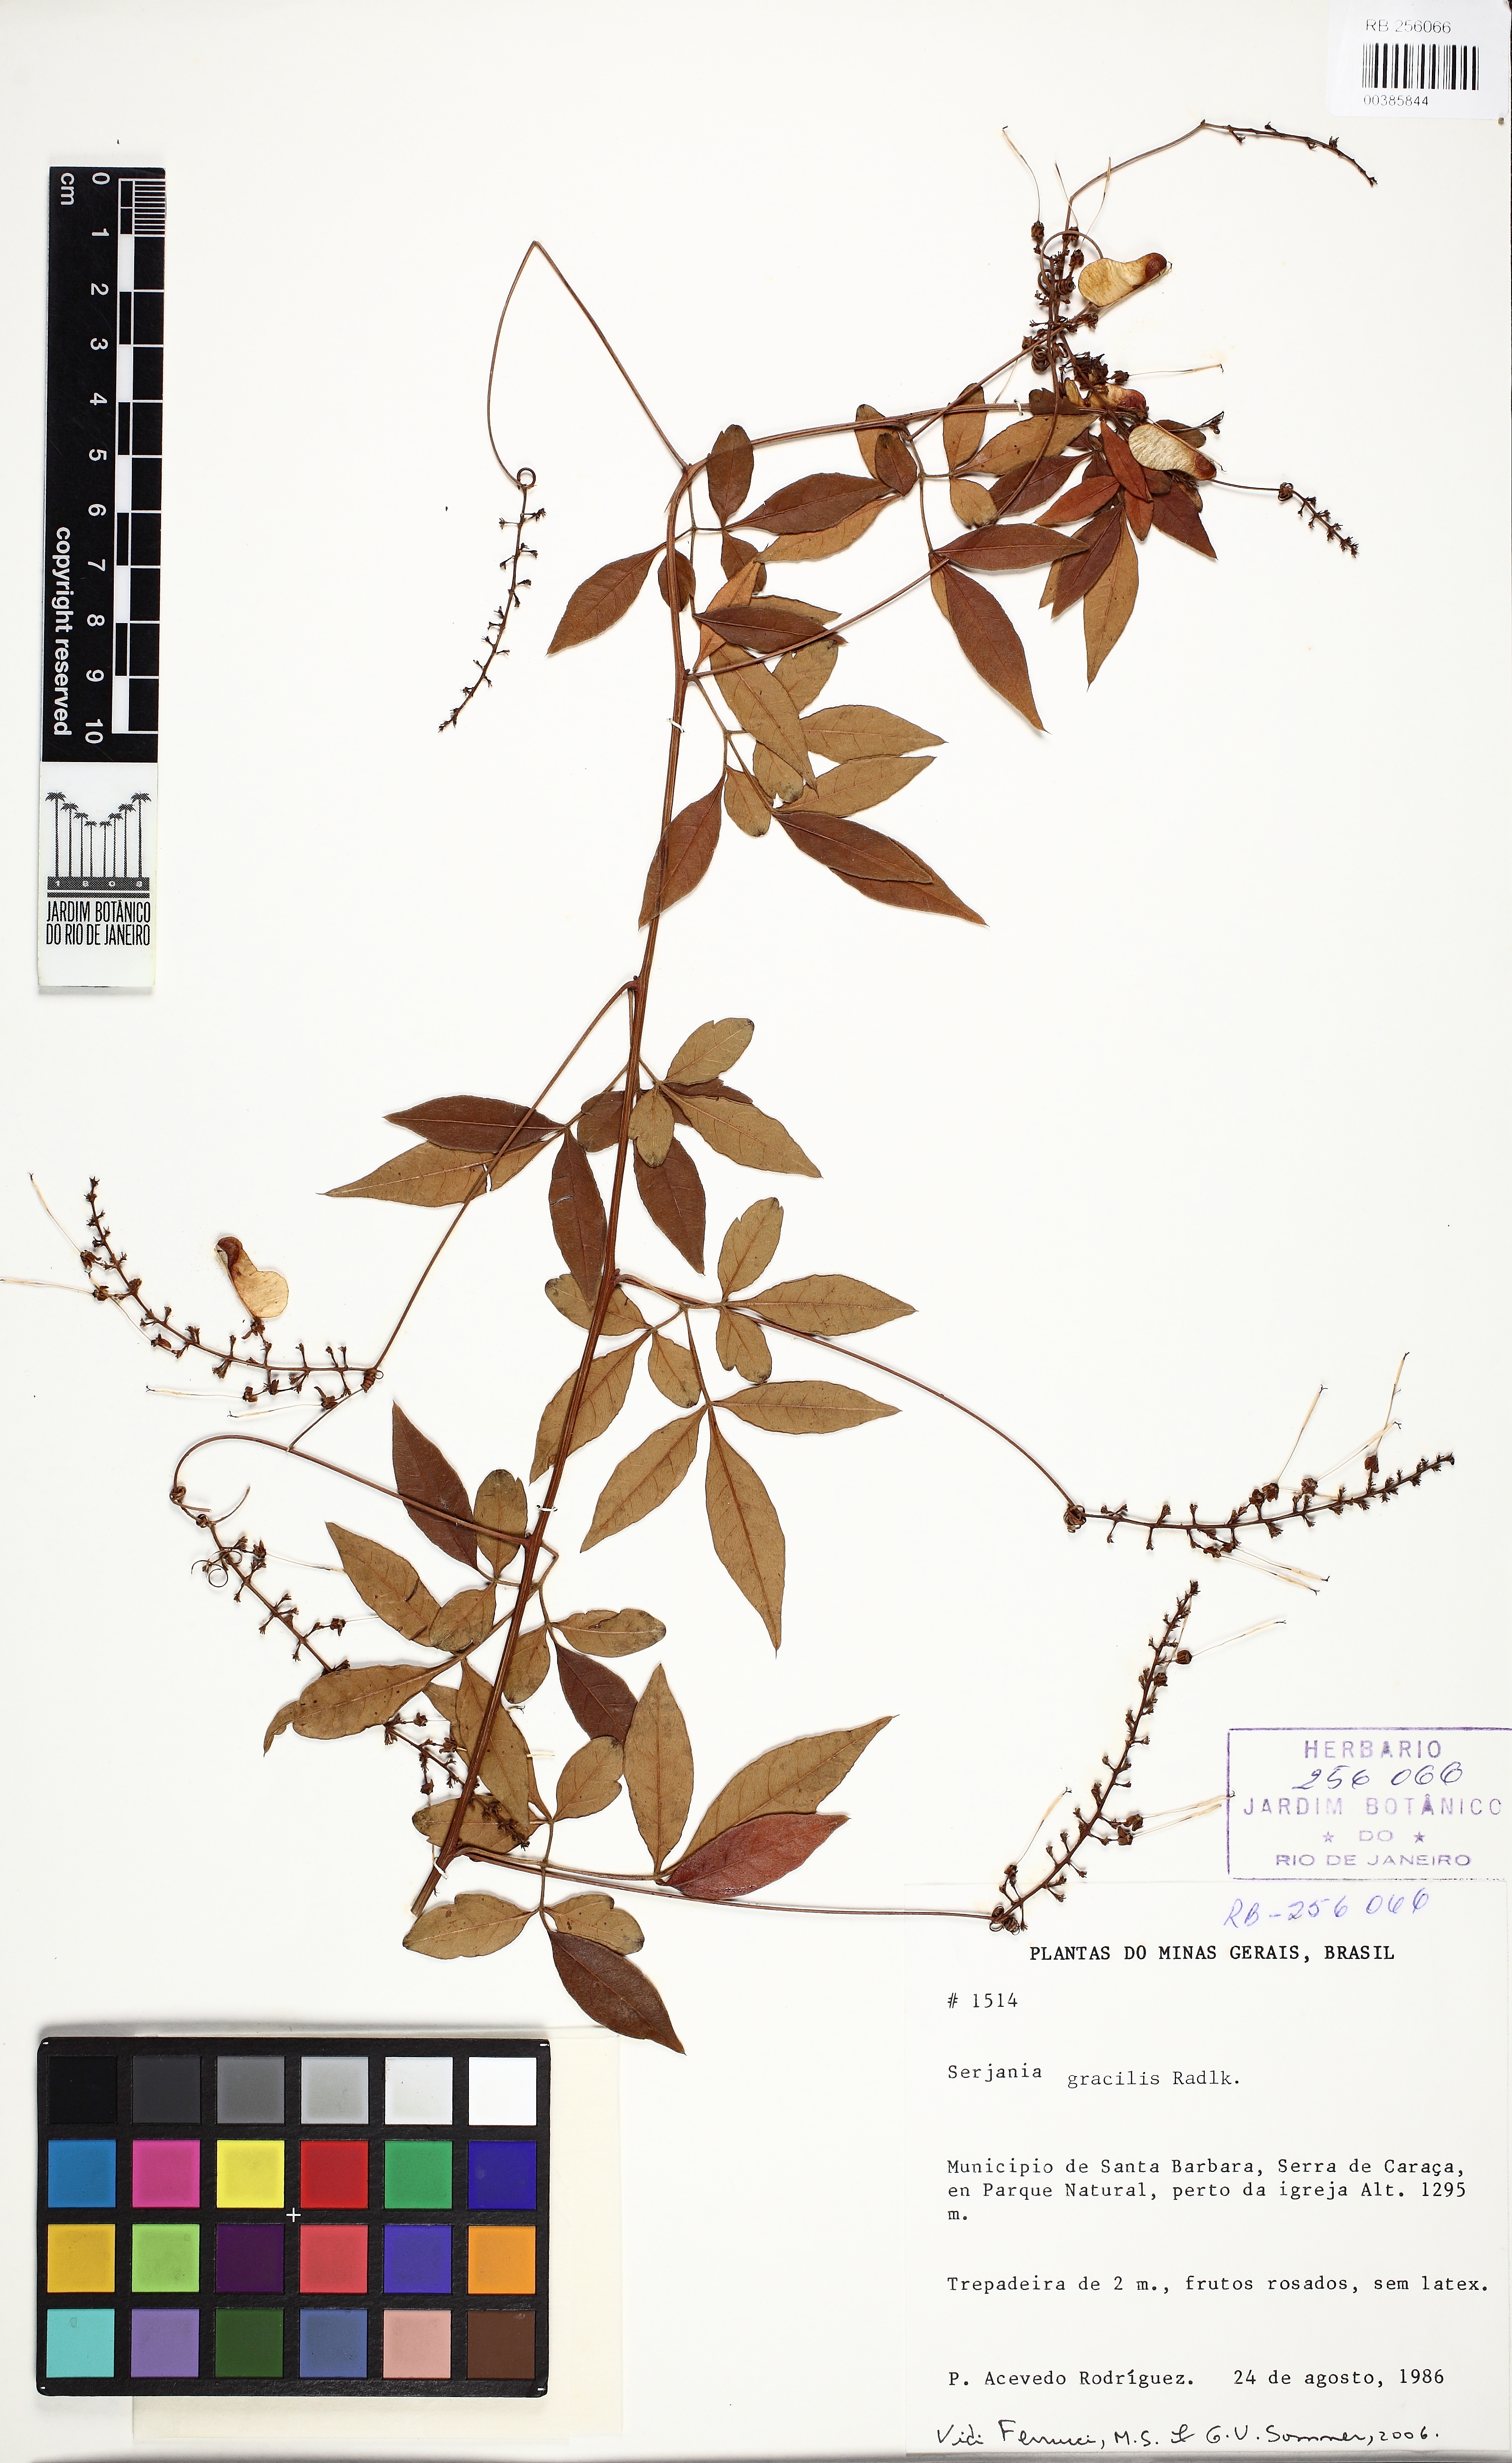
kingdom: Plantae
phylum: Tracheophyta
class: Magnoliopsida
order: Sapindales
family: Sapindaceae
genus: Serjania
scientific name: Serjania gracilis
